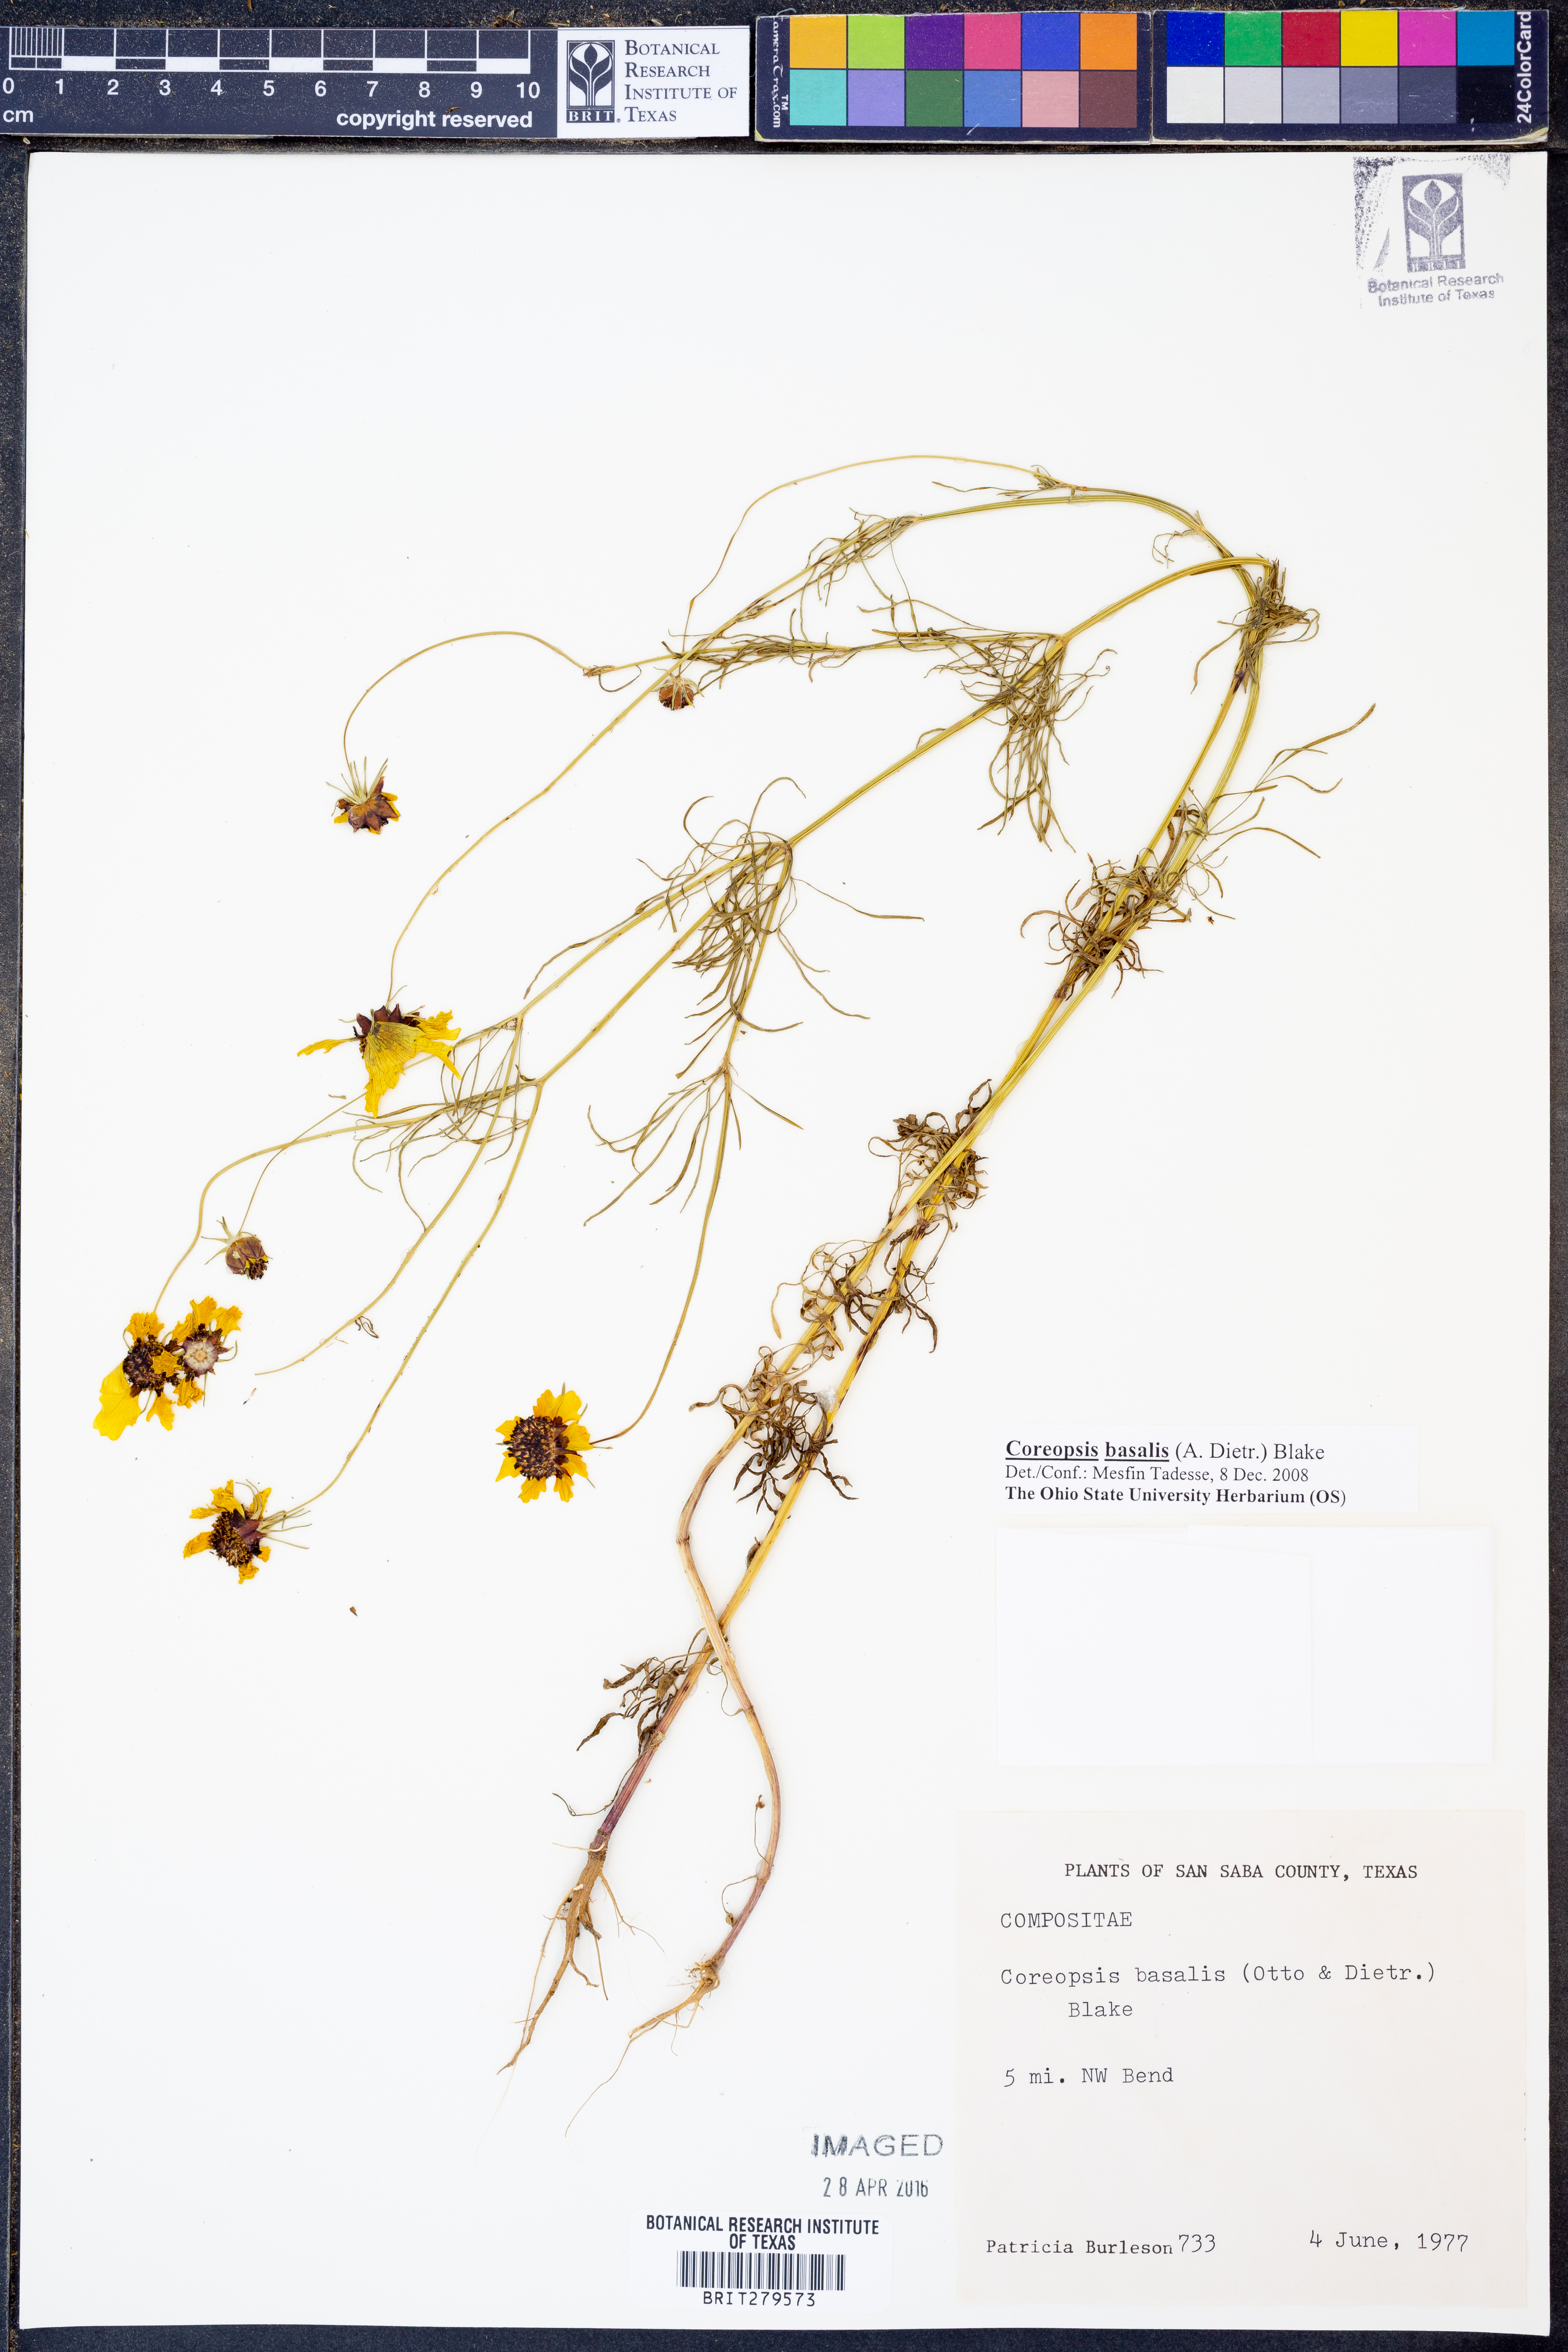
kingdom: Plantae
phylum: Tracheophyta
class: Magnoliopsida
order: Asterales
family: Asteraceae
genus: Coreopsis
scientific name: Coreopsis basalis
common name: Golden-mane coreopsis
